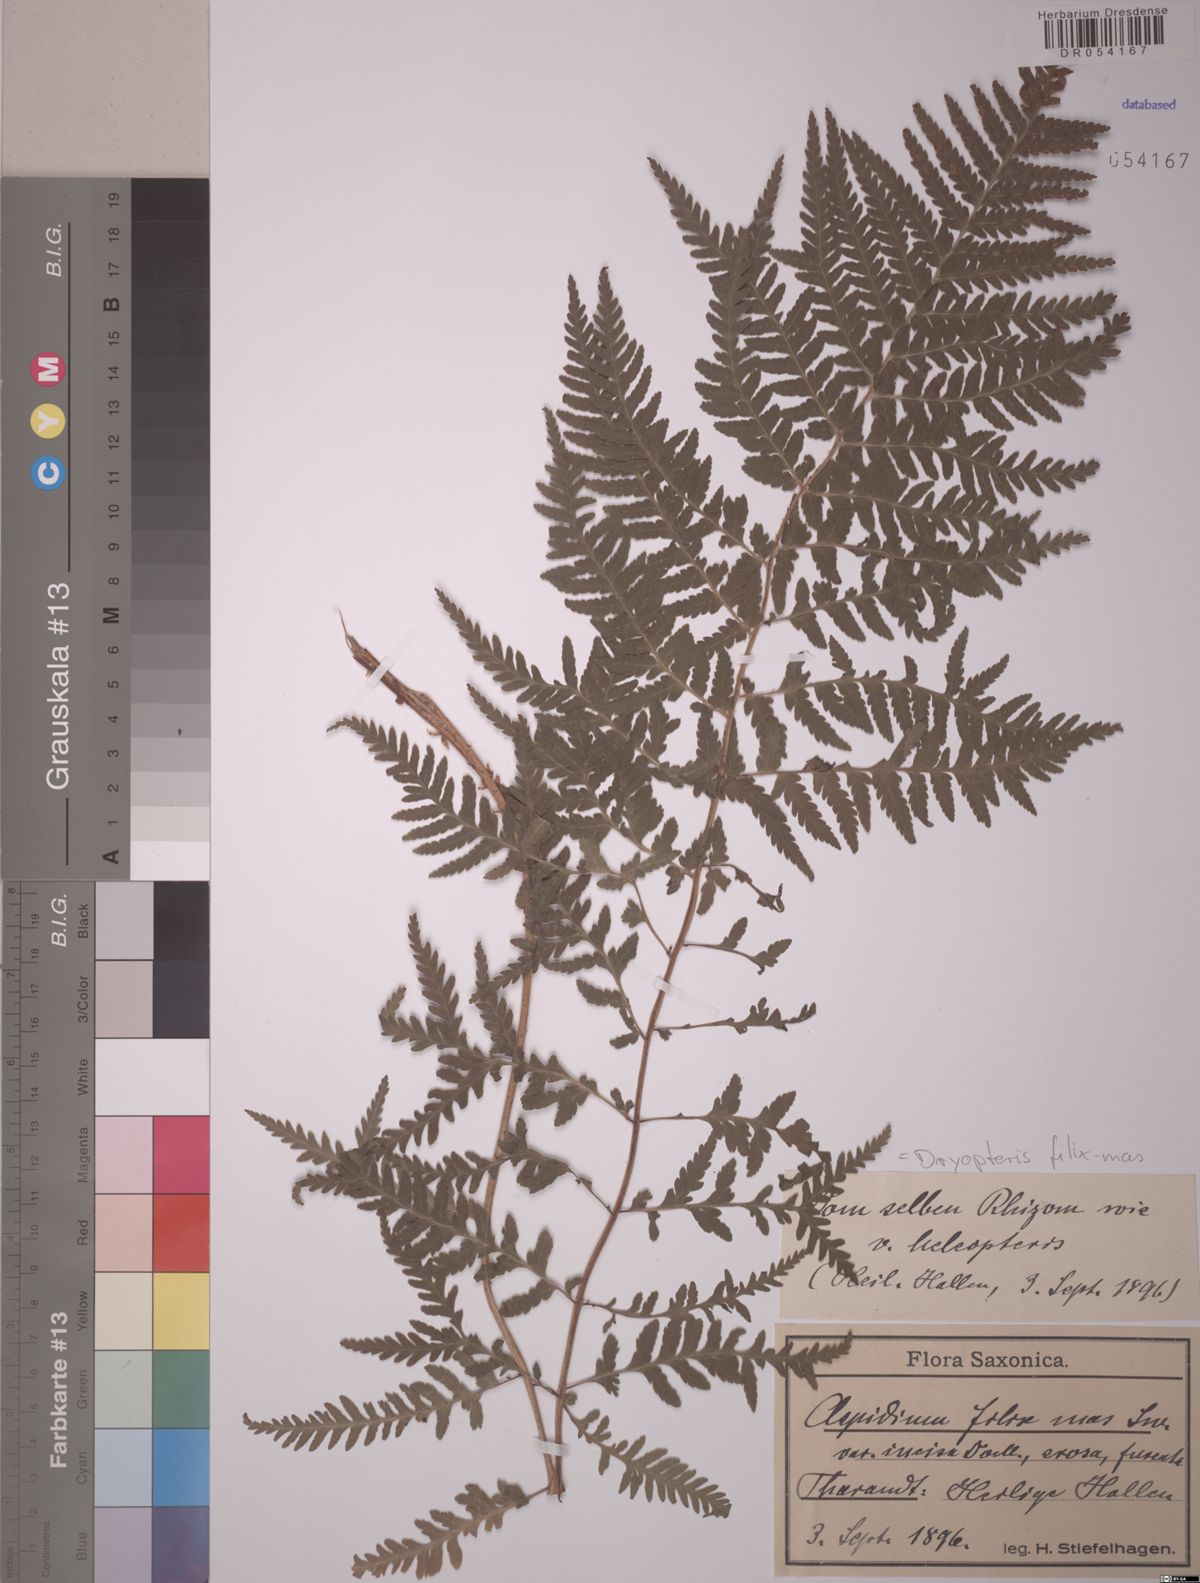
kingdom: Plantae
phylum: Tracheophyta
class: Polypodiopsida
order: Polypodiales
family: Dryopteridaceae
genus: Dryopteris
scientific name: Dryopteris filix-mas
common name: Male fern
